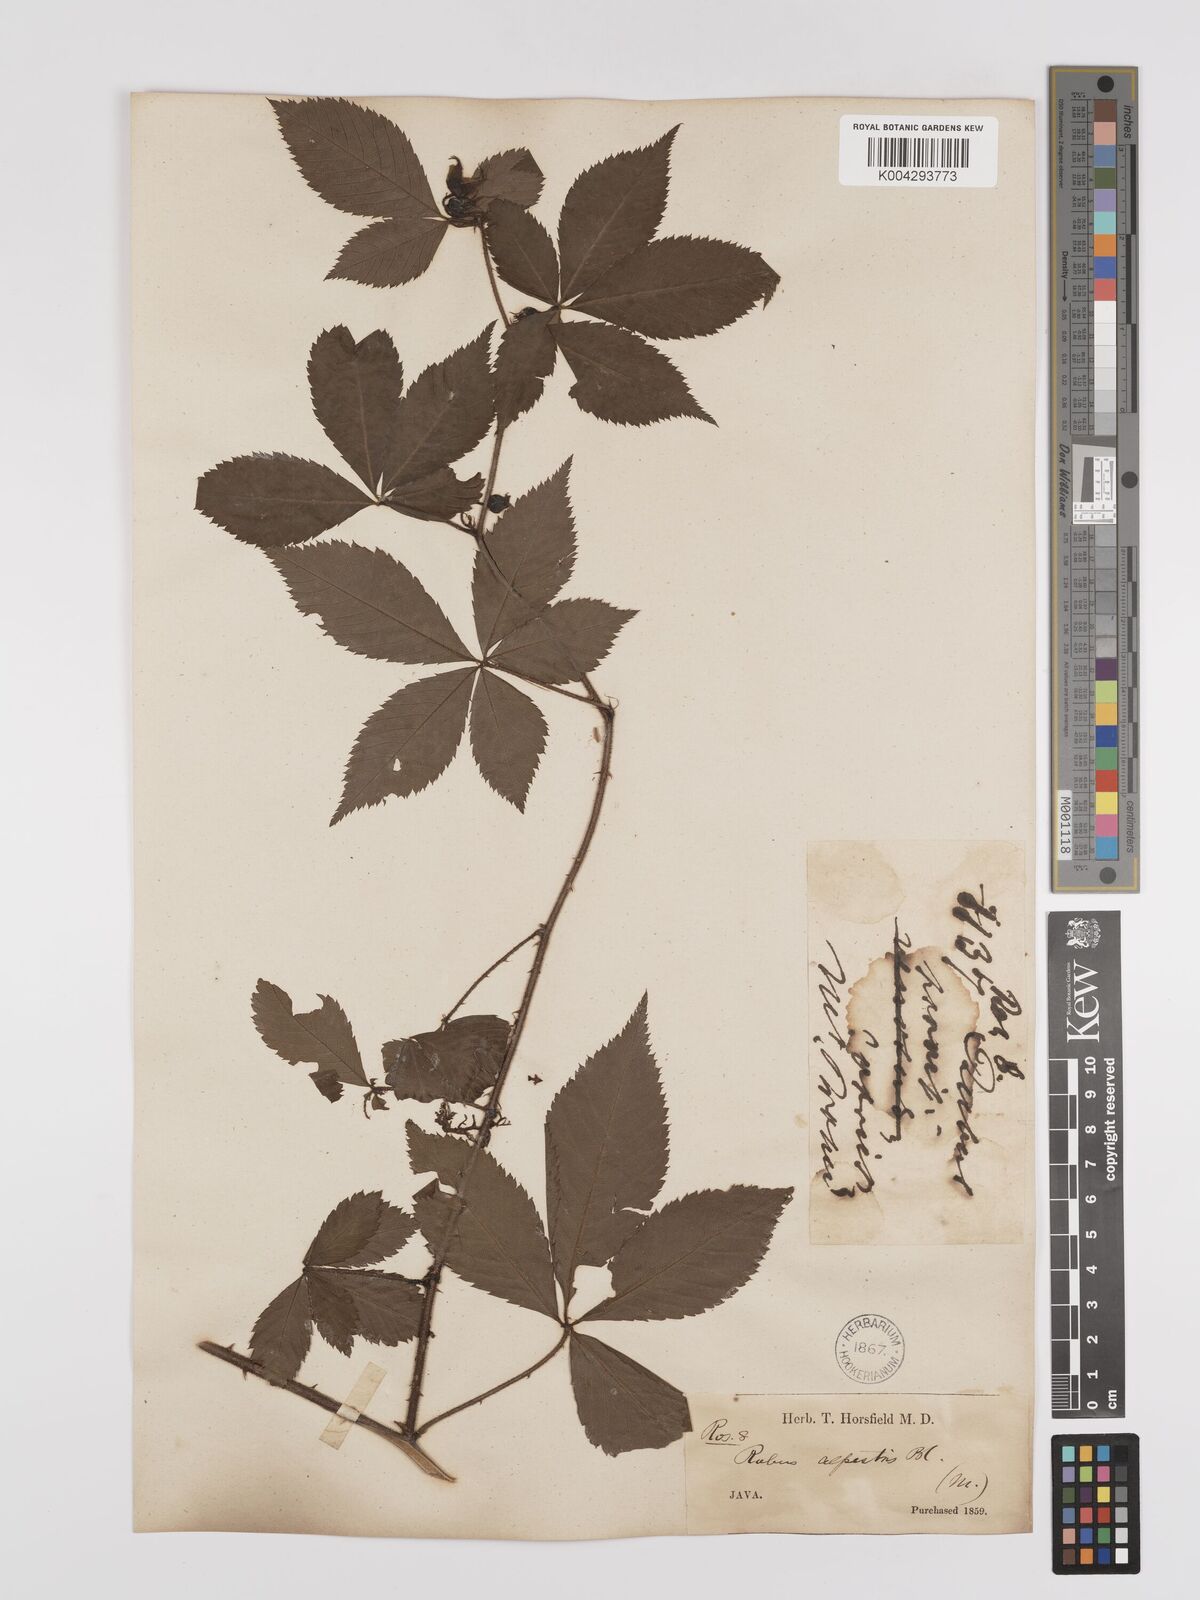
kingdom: Plantae
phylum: Tracheophyta
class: Magnoliopsida
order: Rosales
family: Rosaceae
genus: Rubus
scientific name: Rubus alpestris
